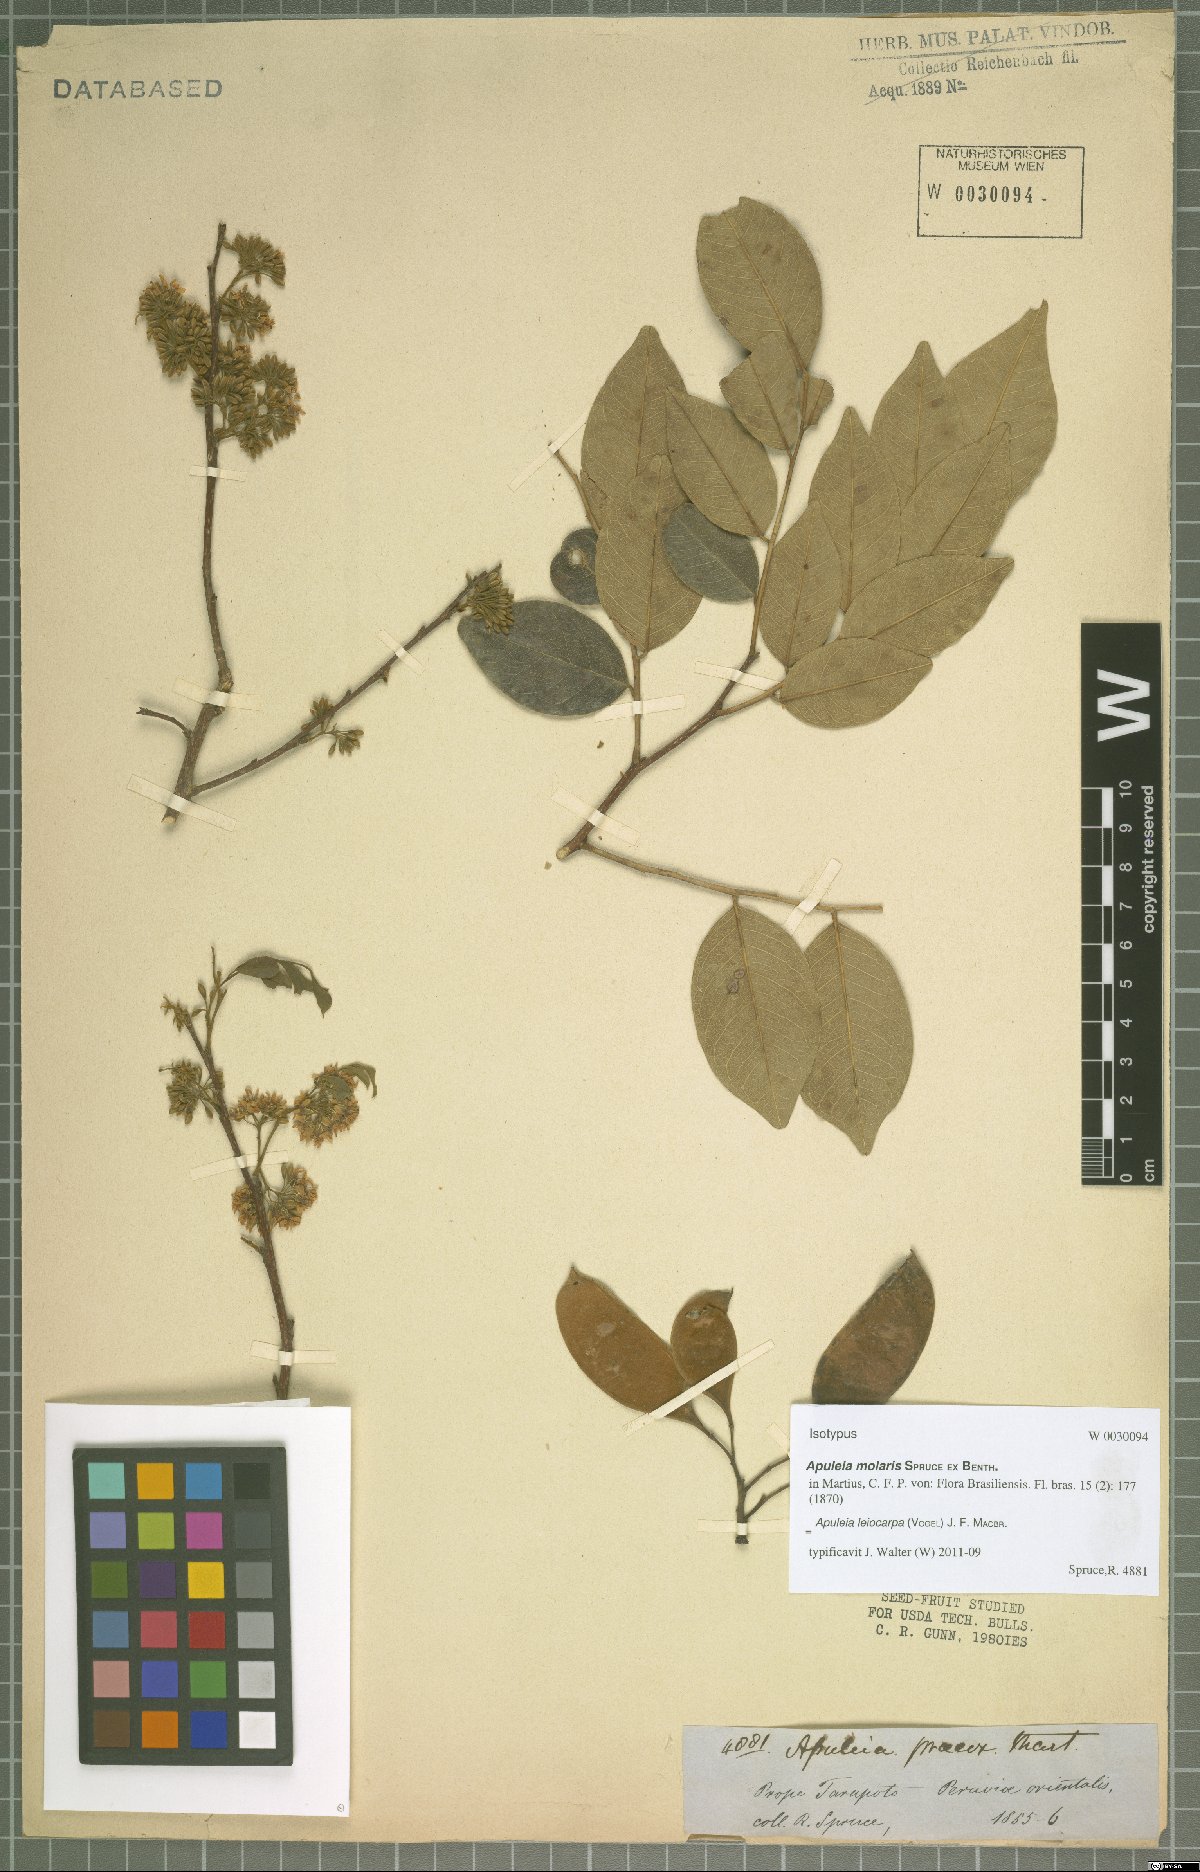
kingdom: Plantae
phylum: Tracheophyta
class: Magnoliopsida
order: Fabales
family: Fabaceae
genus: Apuleia
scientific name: Apuleia leiocarpa
